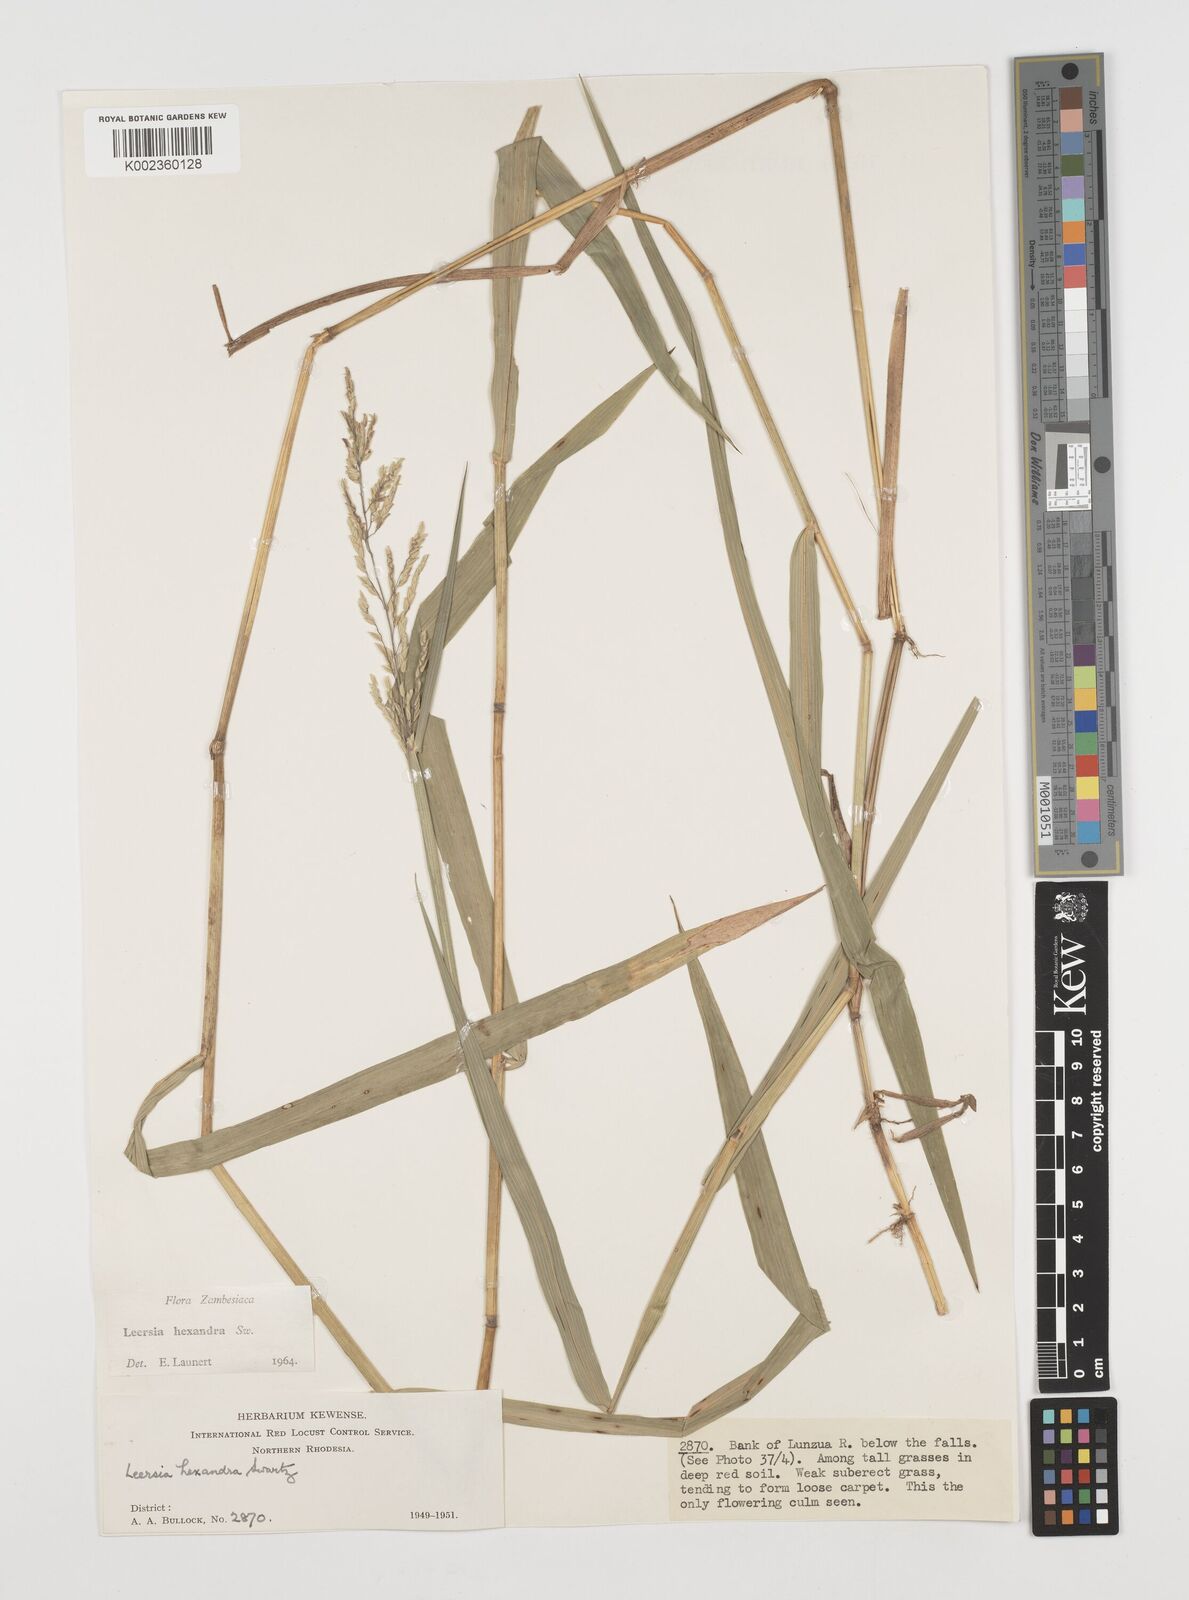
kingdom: Plantae
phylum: Tracheophyta
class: Liliopsida
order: Poales
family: Poaceae
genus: Leersia
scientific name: Leersia hexandra
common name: Southern cut grass
